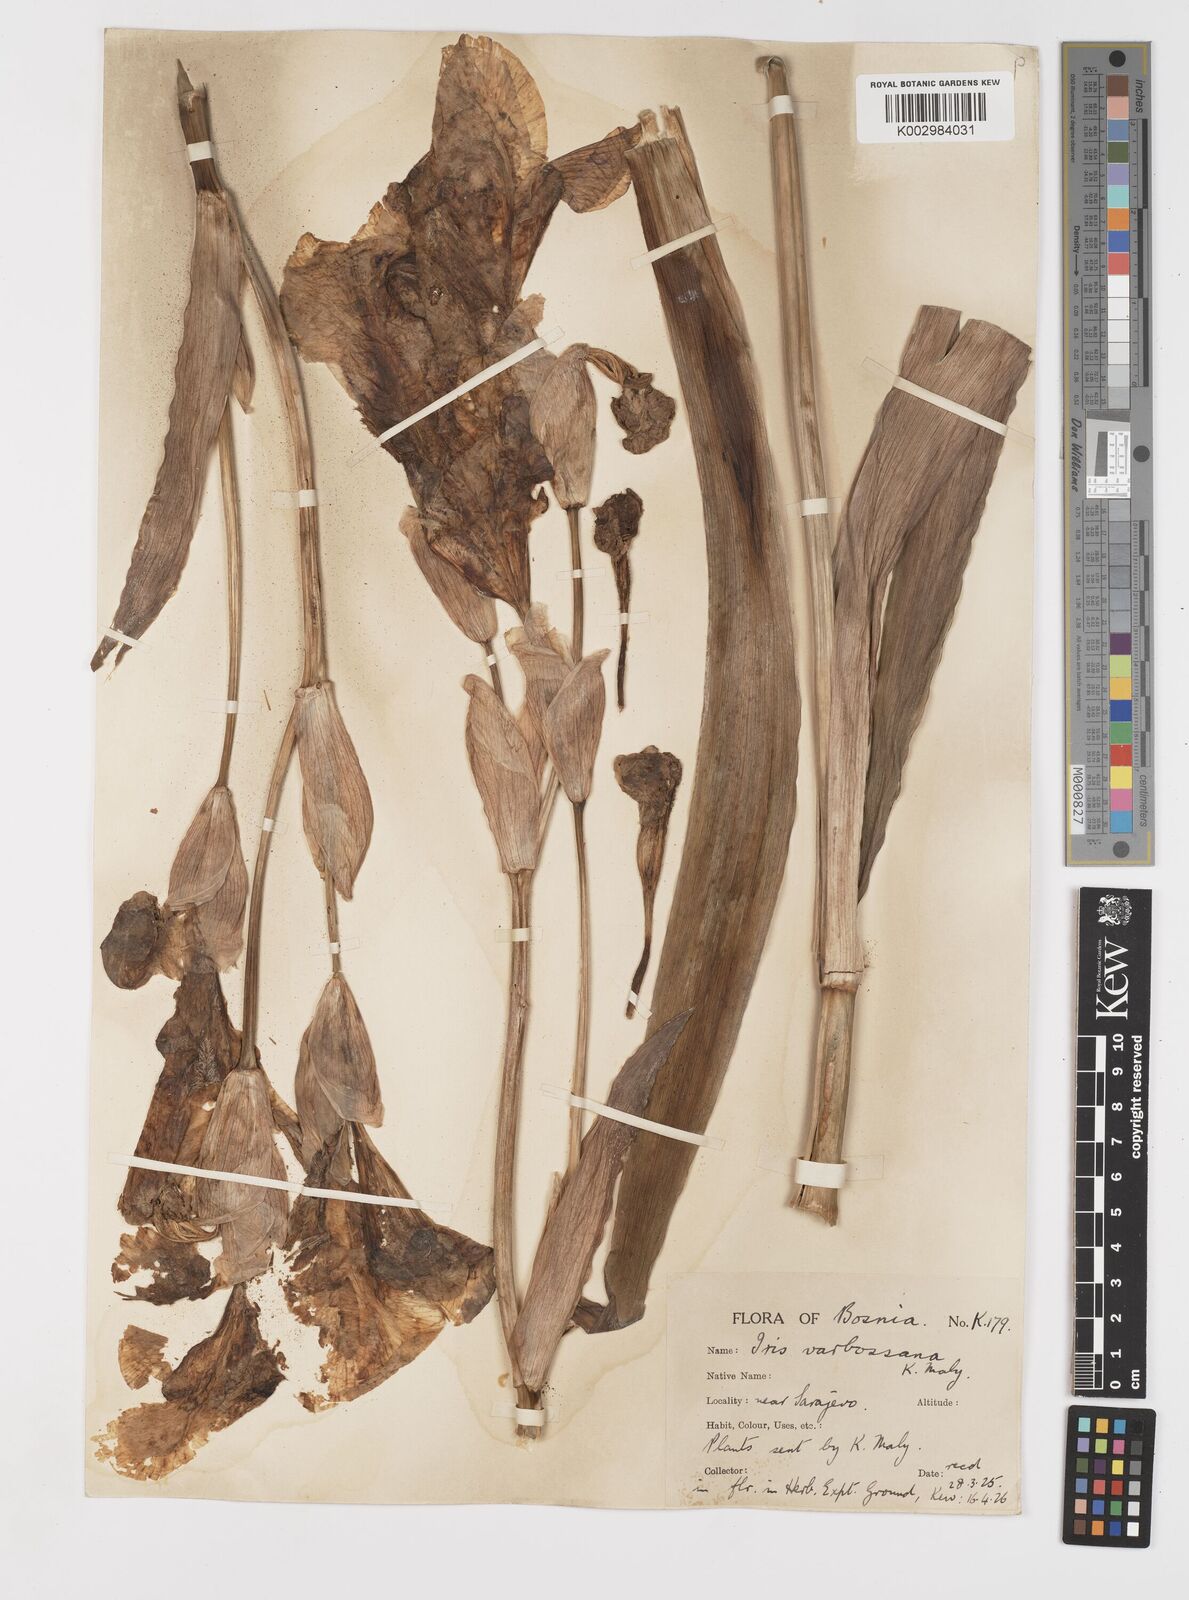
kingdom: Plantae
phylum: Tracheophyta
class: Liliopsida
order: Asparagales
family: Iridaceae
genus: Iris
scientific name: Iris germanica
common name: German iris
